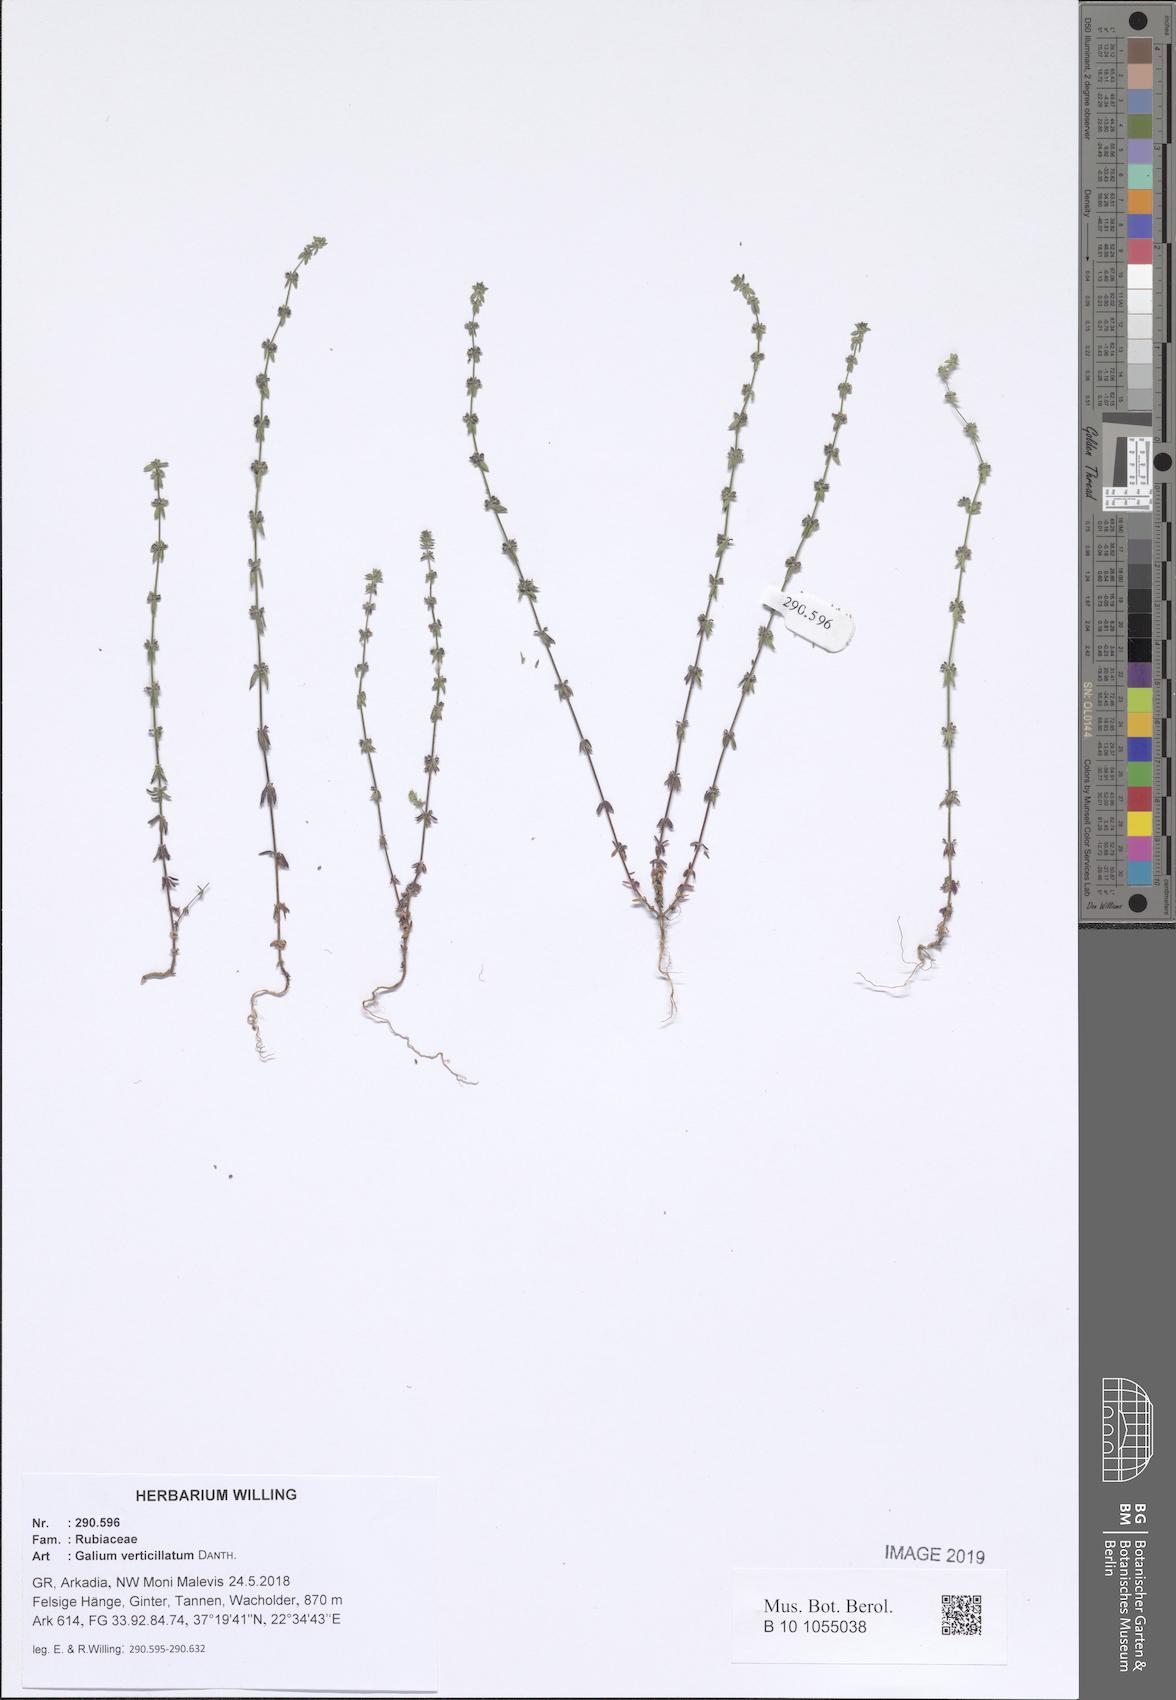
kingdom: Plantae
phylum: Tracheophyta
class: Magnoliopsida
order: Gentianales
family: Rubiaceae
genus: Galium
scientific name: Galium verticillatum
